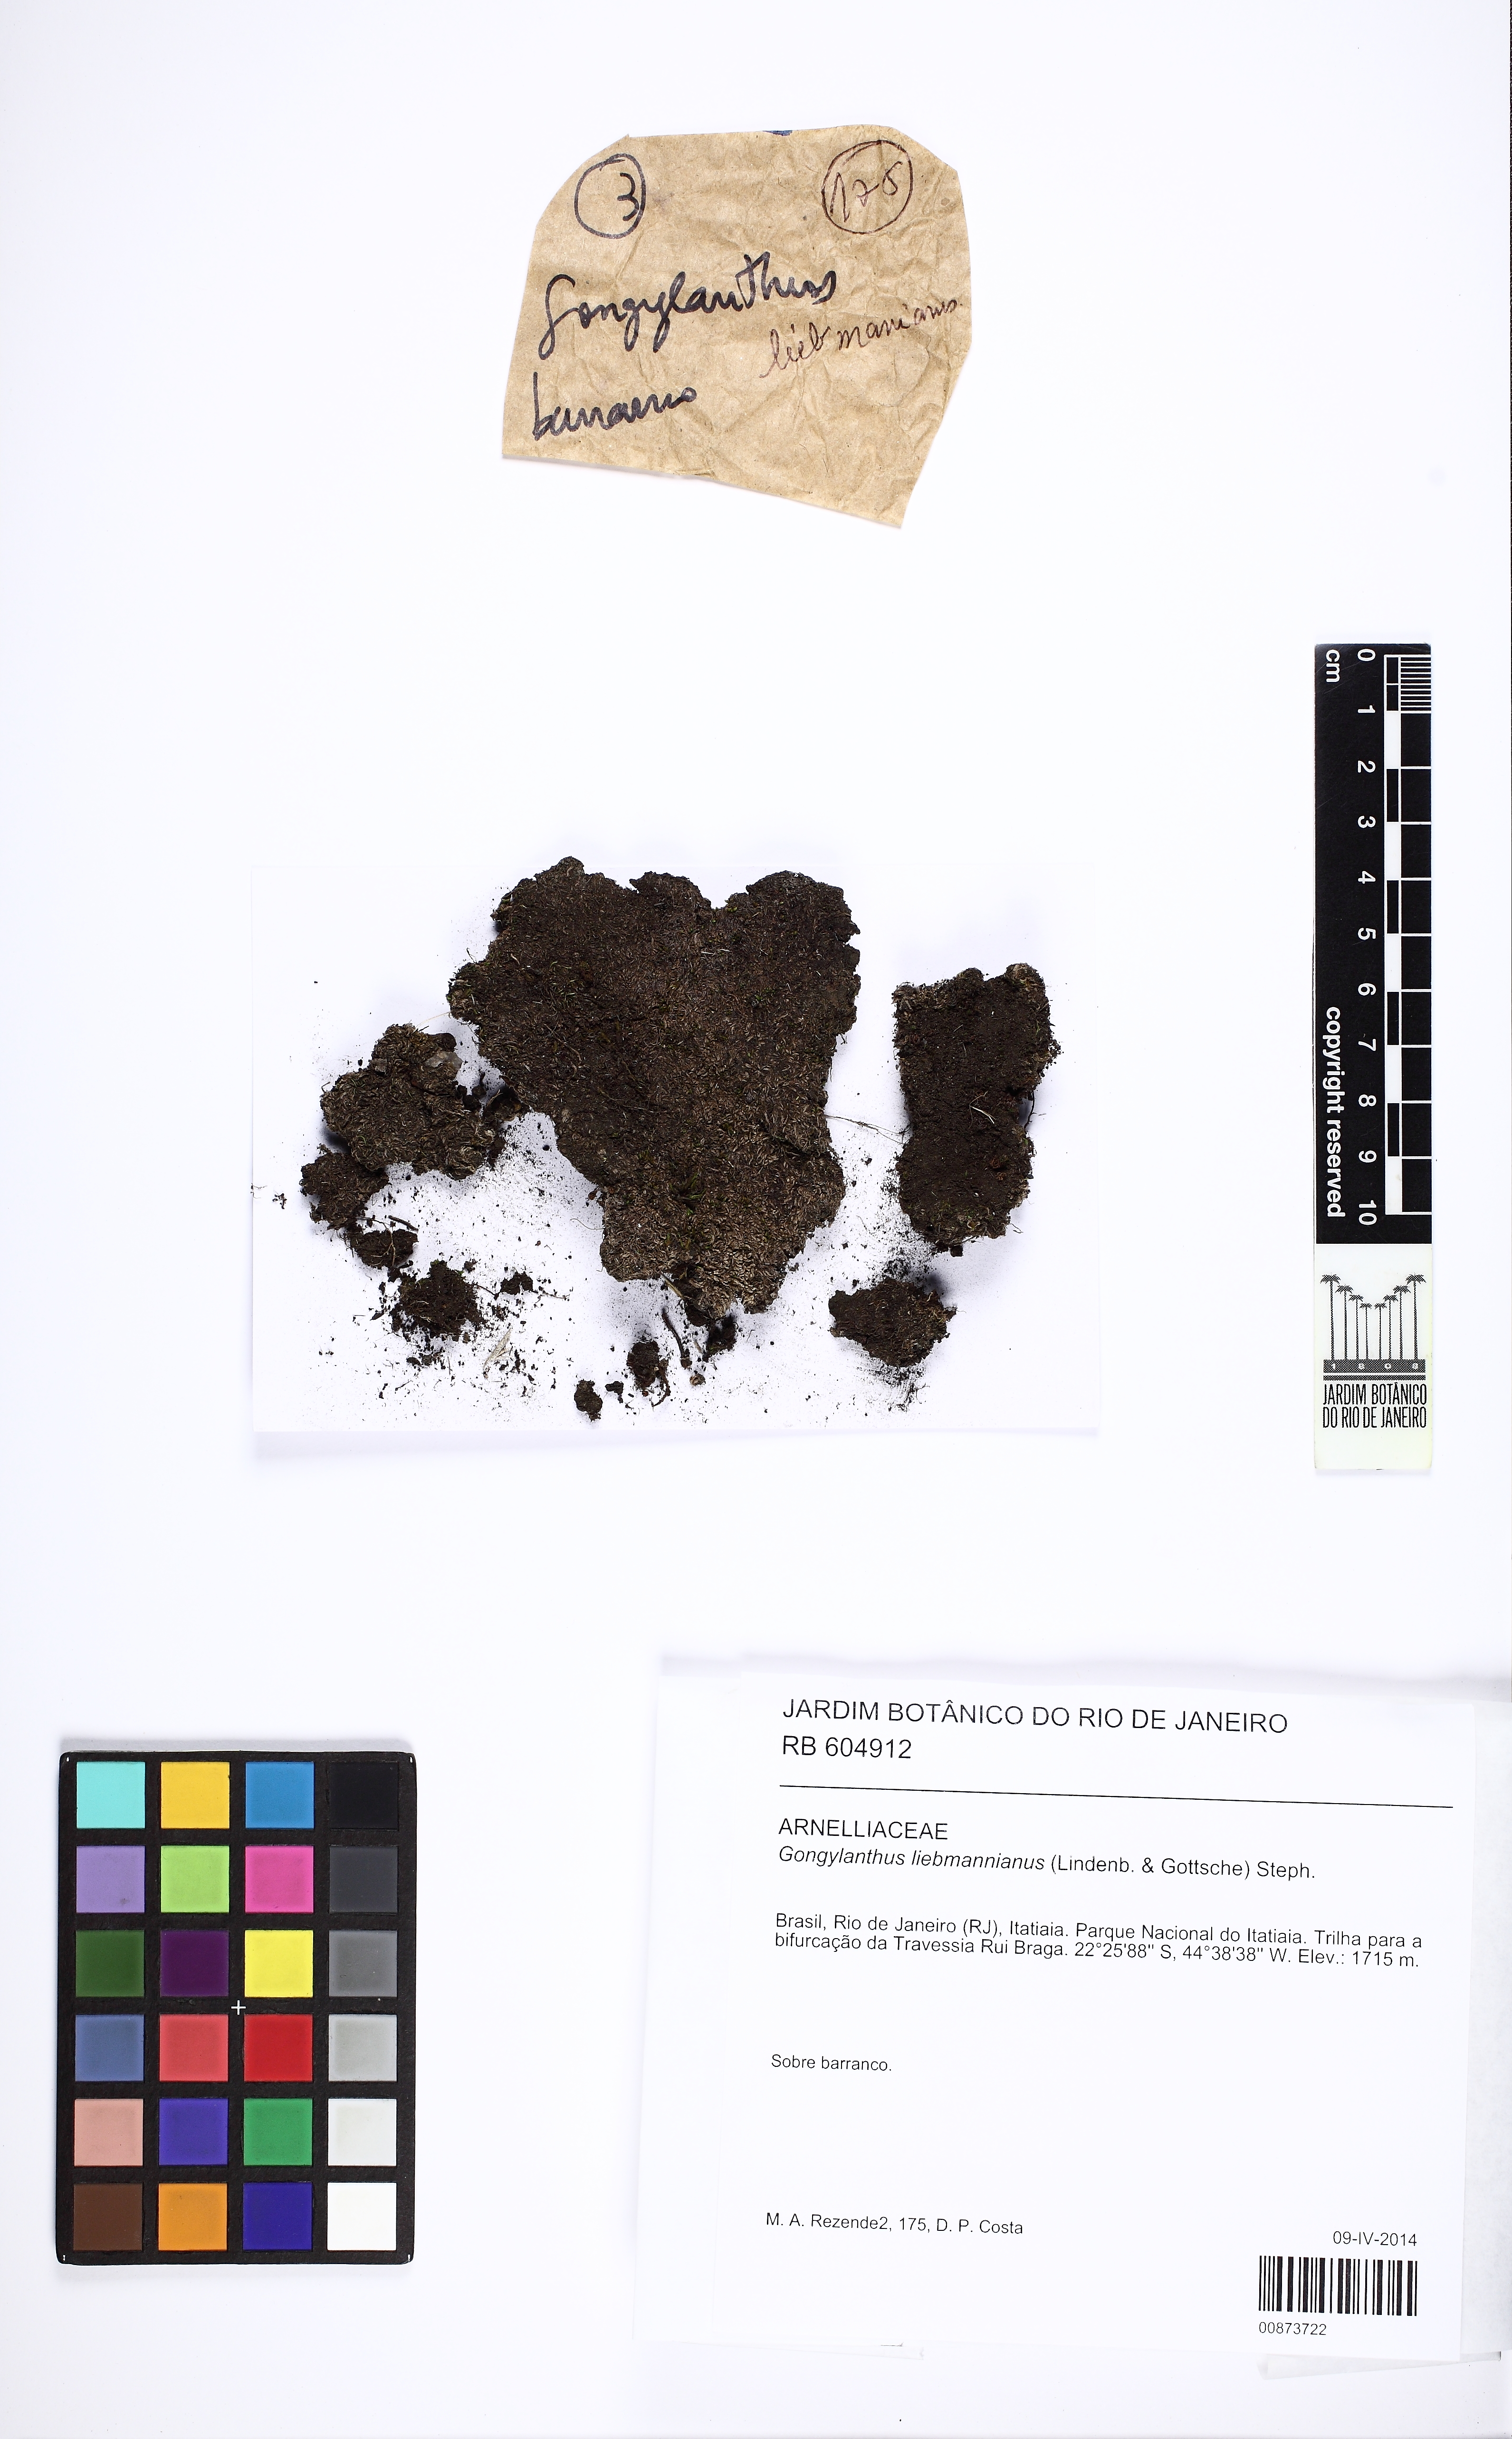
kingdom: Plantae
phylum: Marchantiophyta
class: Jungermanniopsida
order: Jungermanniales
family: Southbyaceae
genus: Gongylanthus
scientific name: Gongylanthus liebmannianus
